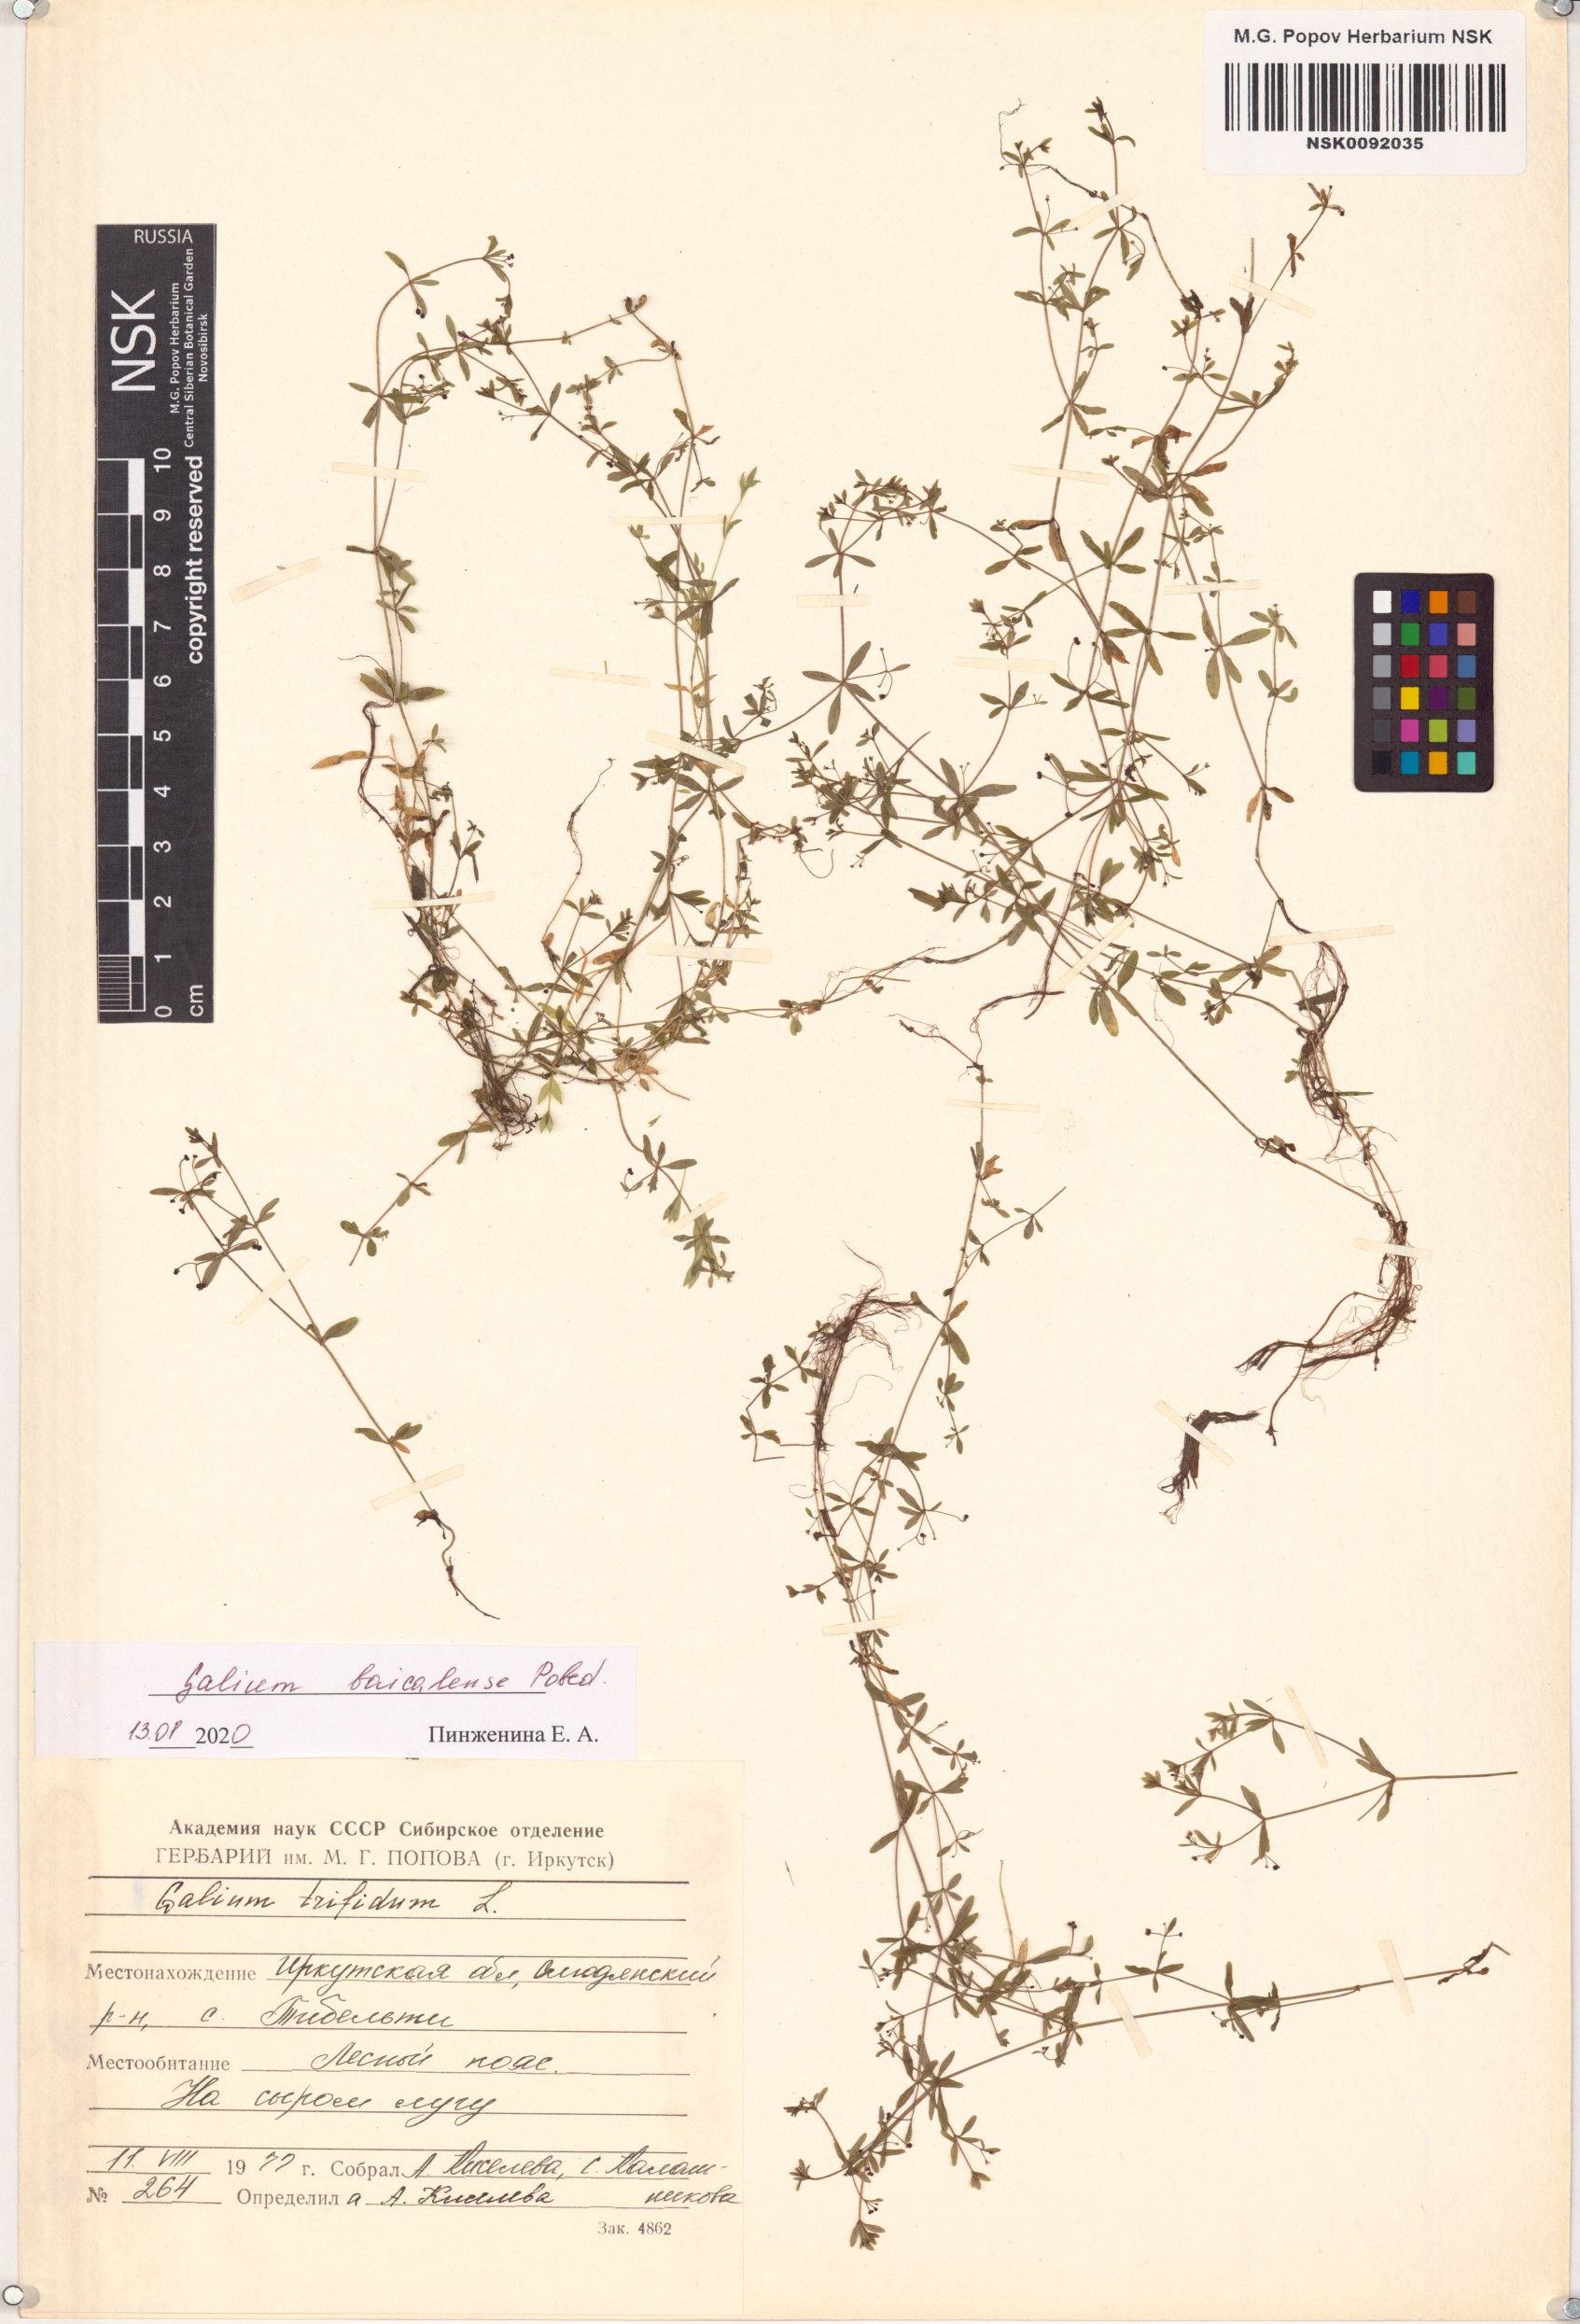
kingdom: Plantae
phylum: Tracheophyta
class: Magnoliopsida
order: Gentianales
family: Rubiaceae
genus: Galium
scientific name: Galium trifidum
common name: Small bedstraw
